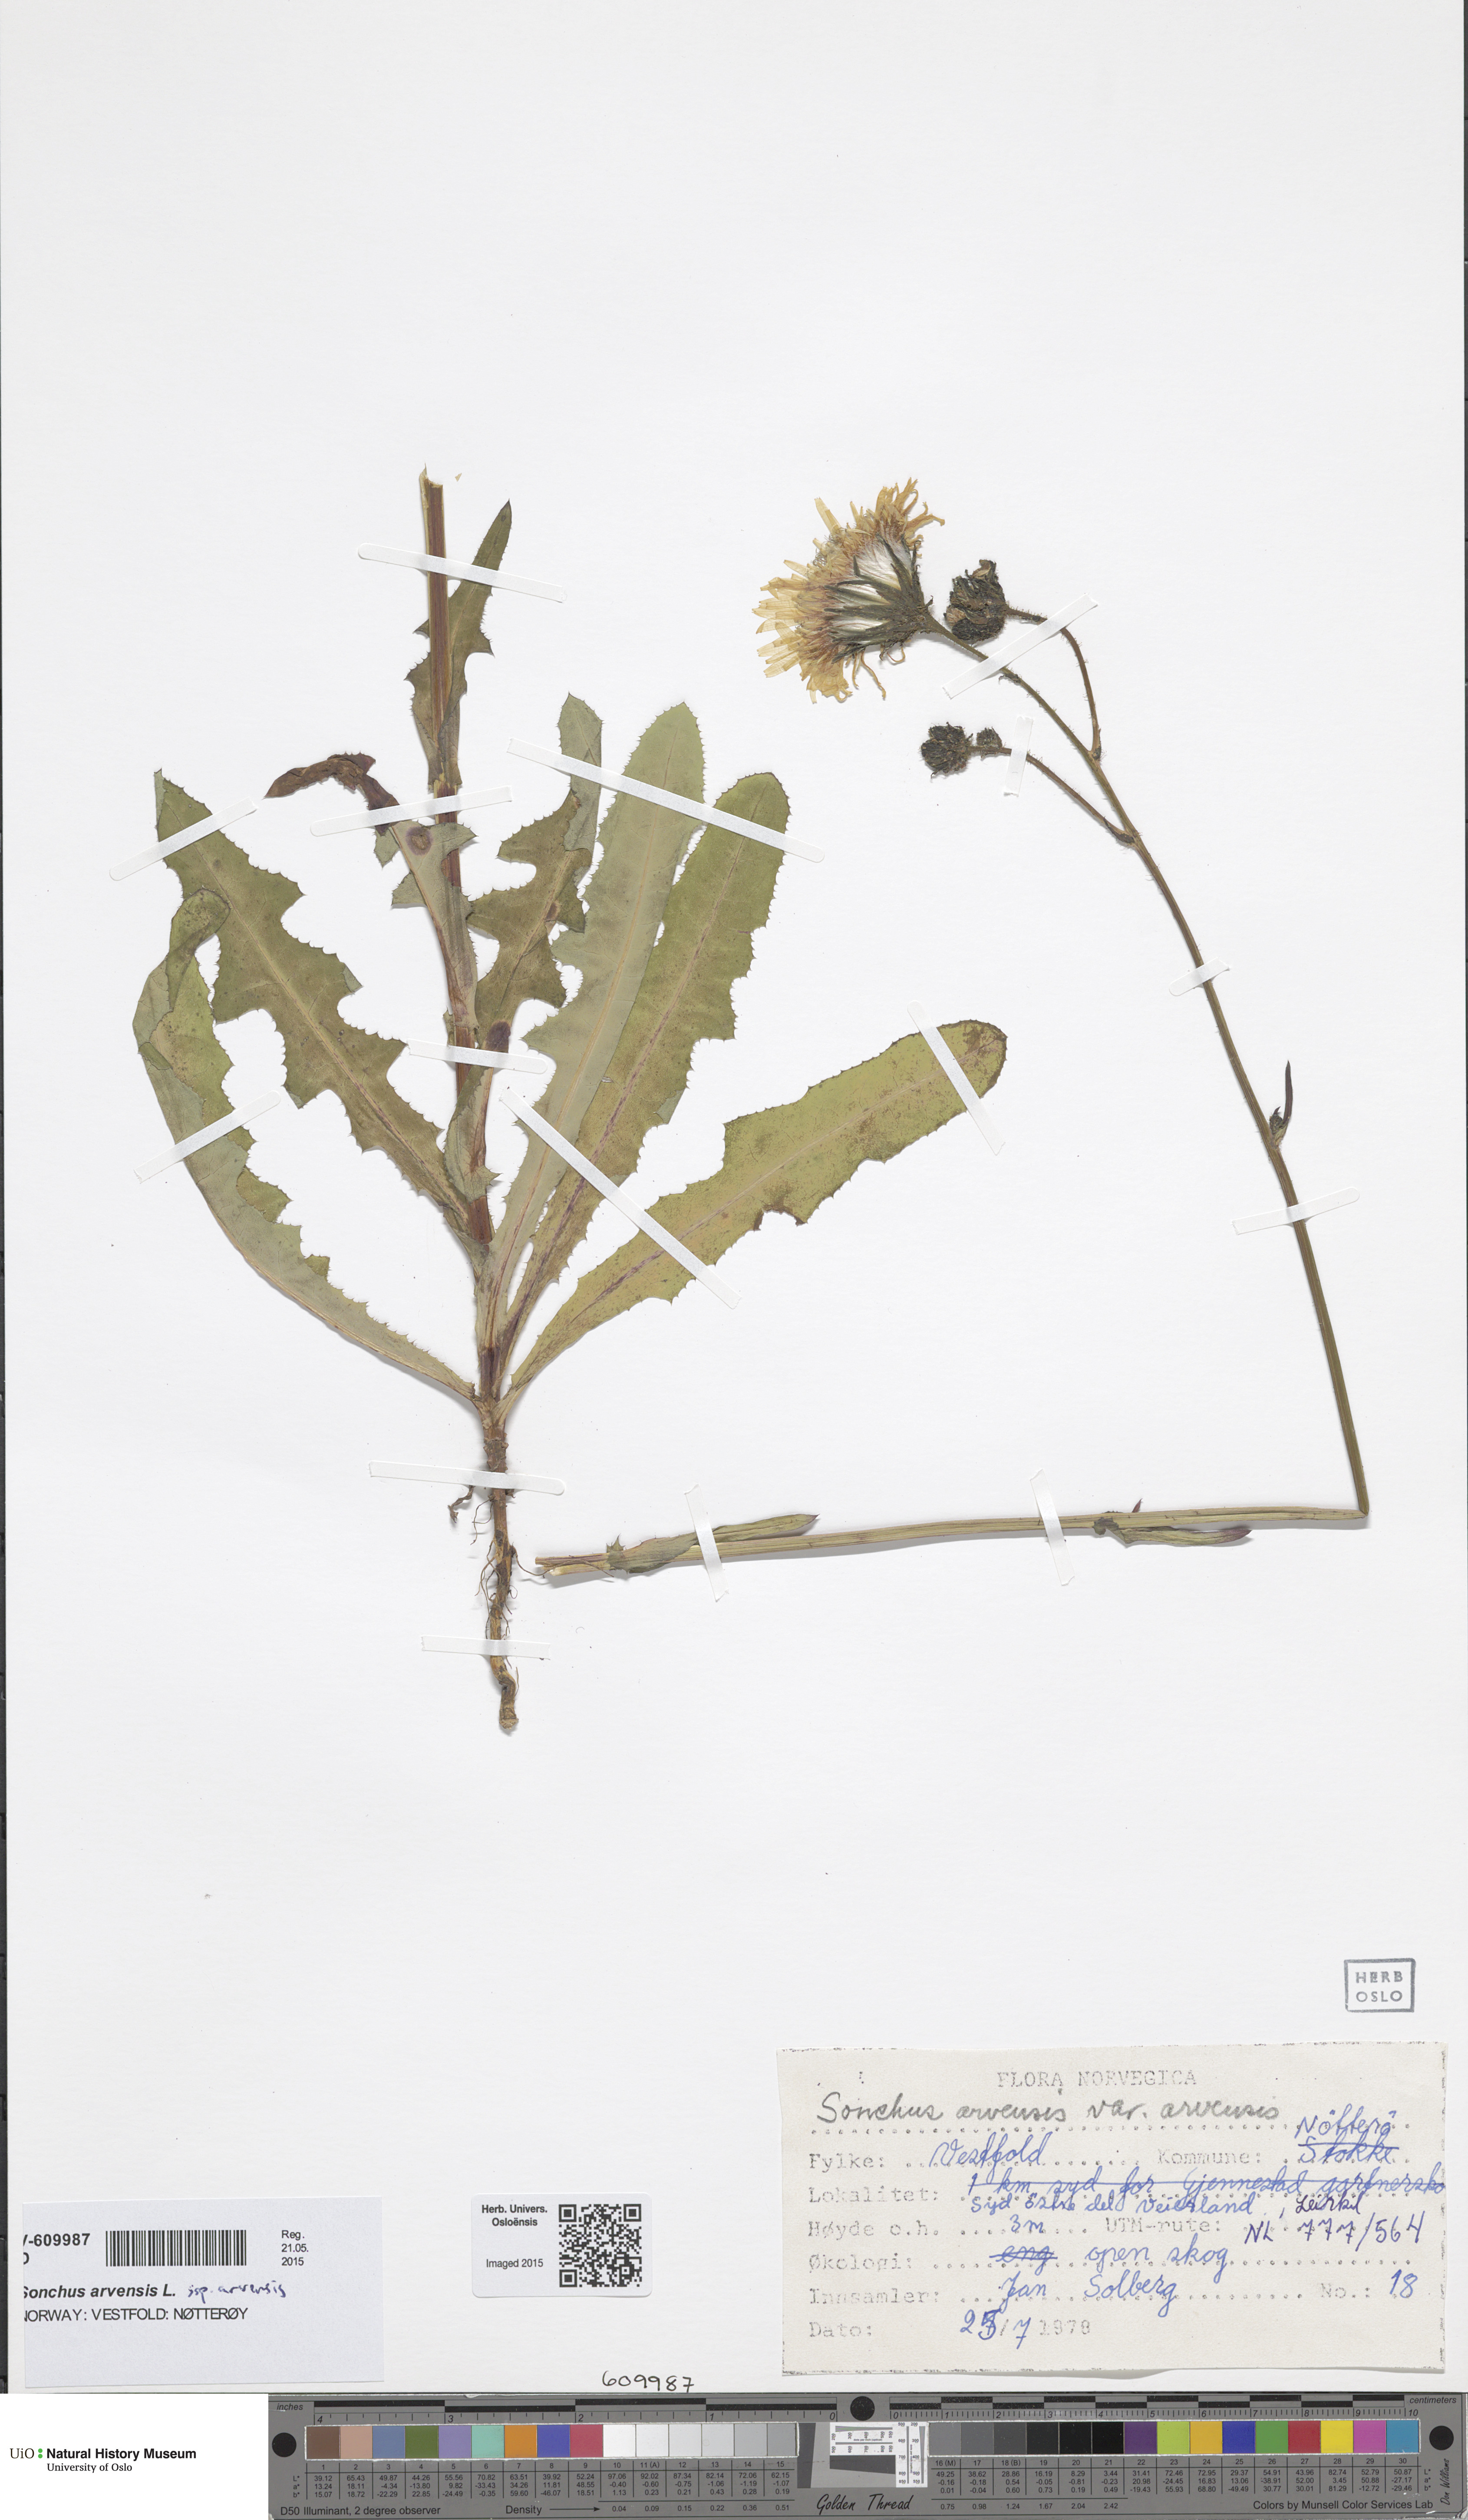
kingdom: Plantae
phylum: Tracheophyta
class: Magnoliopsida
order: Asterales
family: Asteraceae
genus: Sonchus
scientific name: Sonchus arvensis
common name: Perennial sow-thistle
